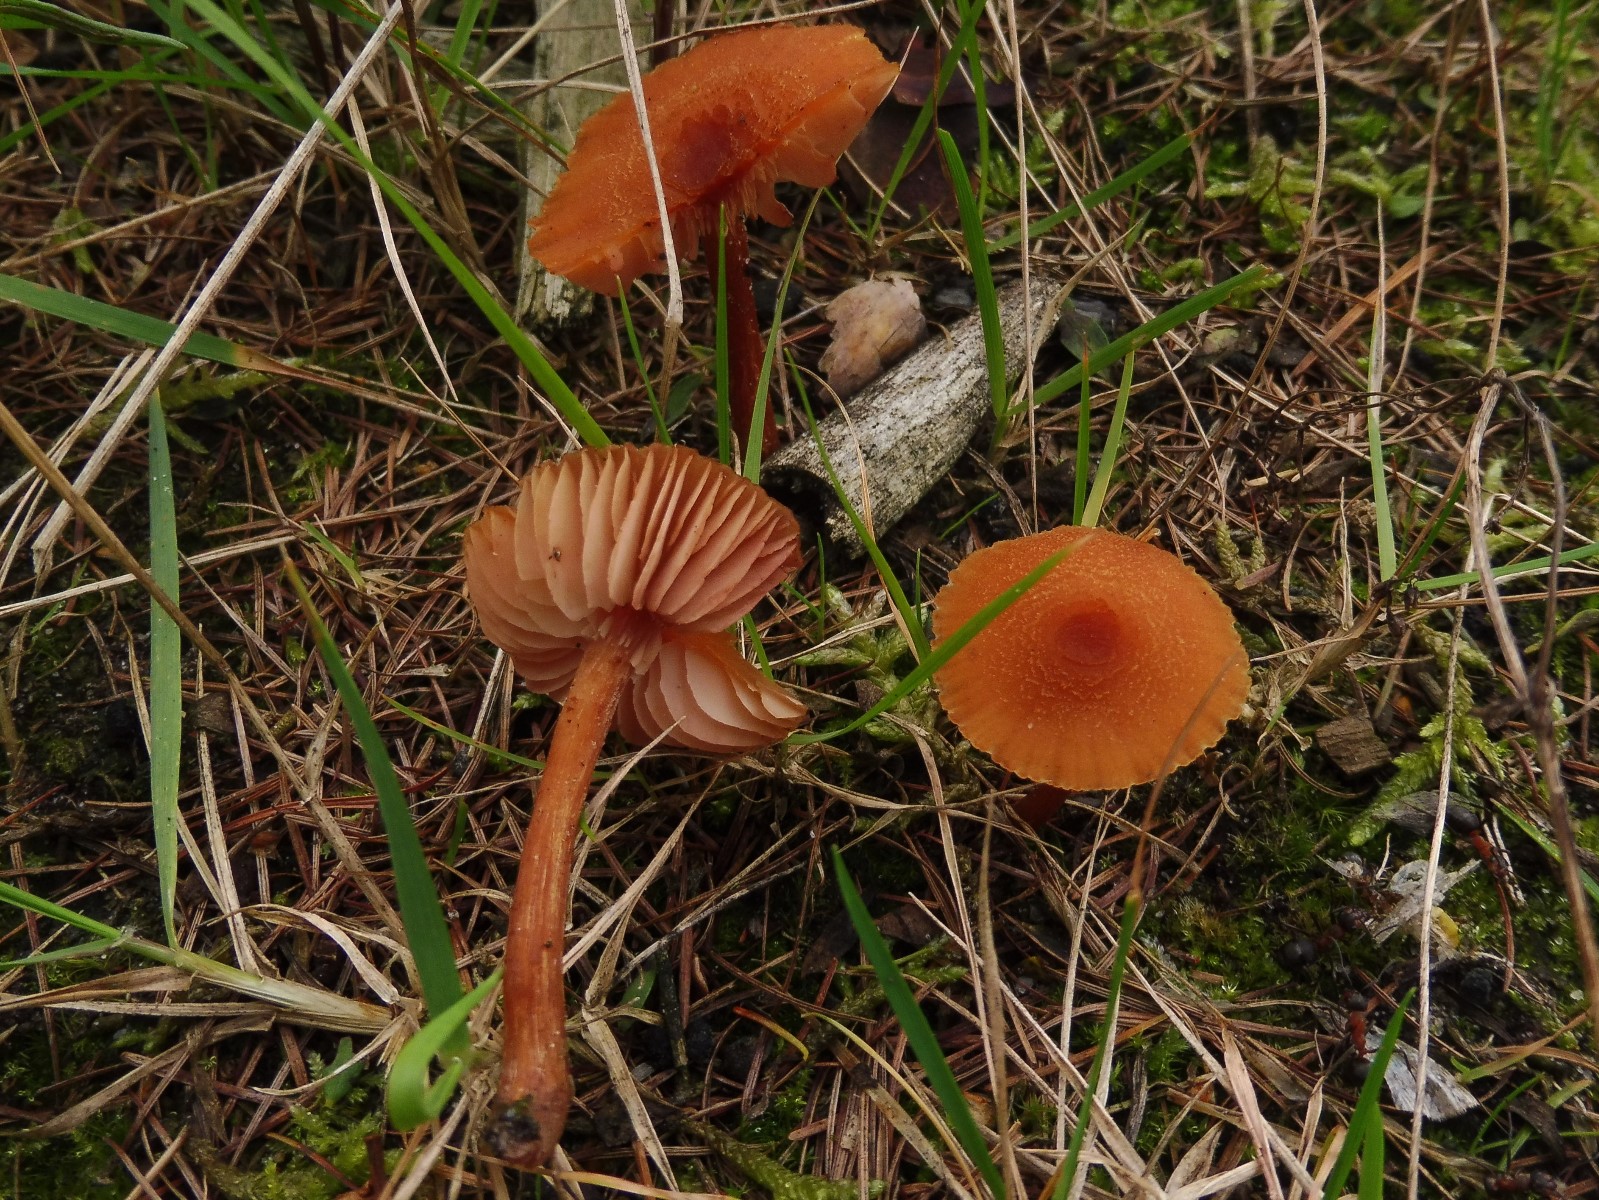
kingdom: Fungi
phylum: Basidiomycota
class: Agaricomycetes
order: Agaricales
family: Hydnangiaceae
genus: Laccaria
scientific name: Laccaria proxima
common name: stor ametysthat
